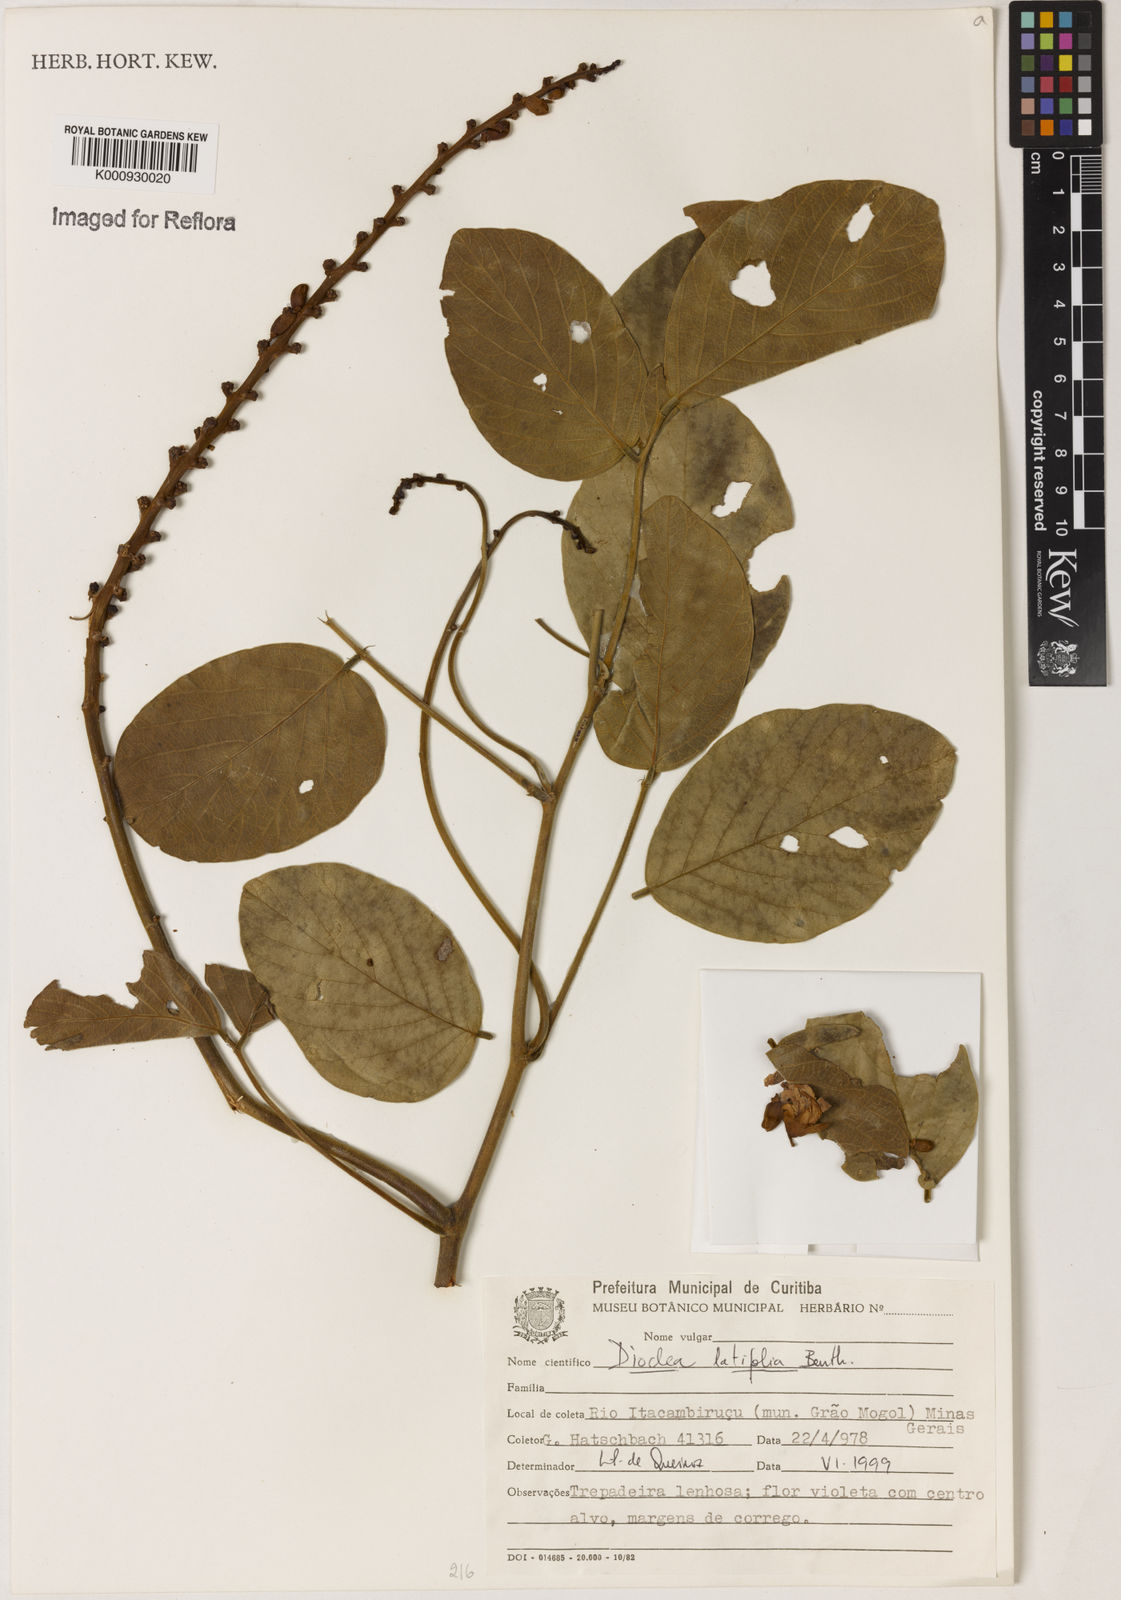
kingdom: Plantae
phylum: Tracheophyta
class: Magnoliopsida
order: Fabales
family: Fabaceae
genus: Macropsychanthus
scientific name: Macropsychanthus latifolius
